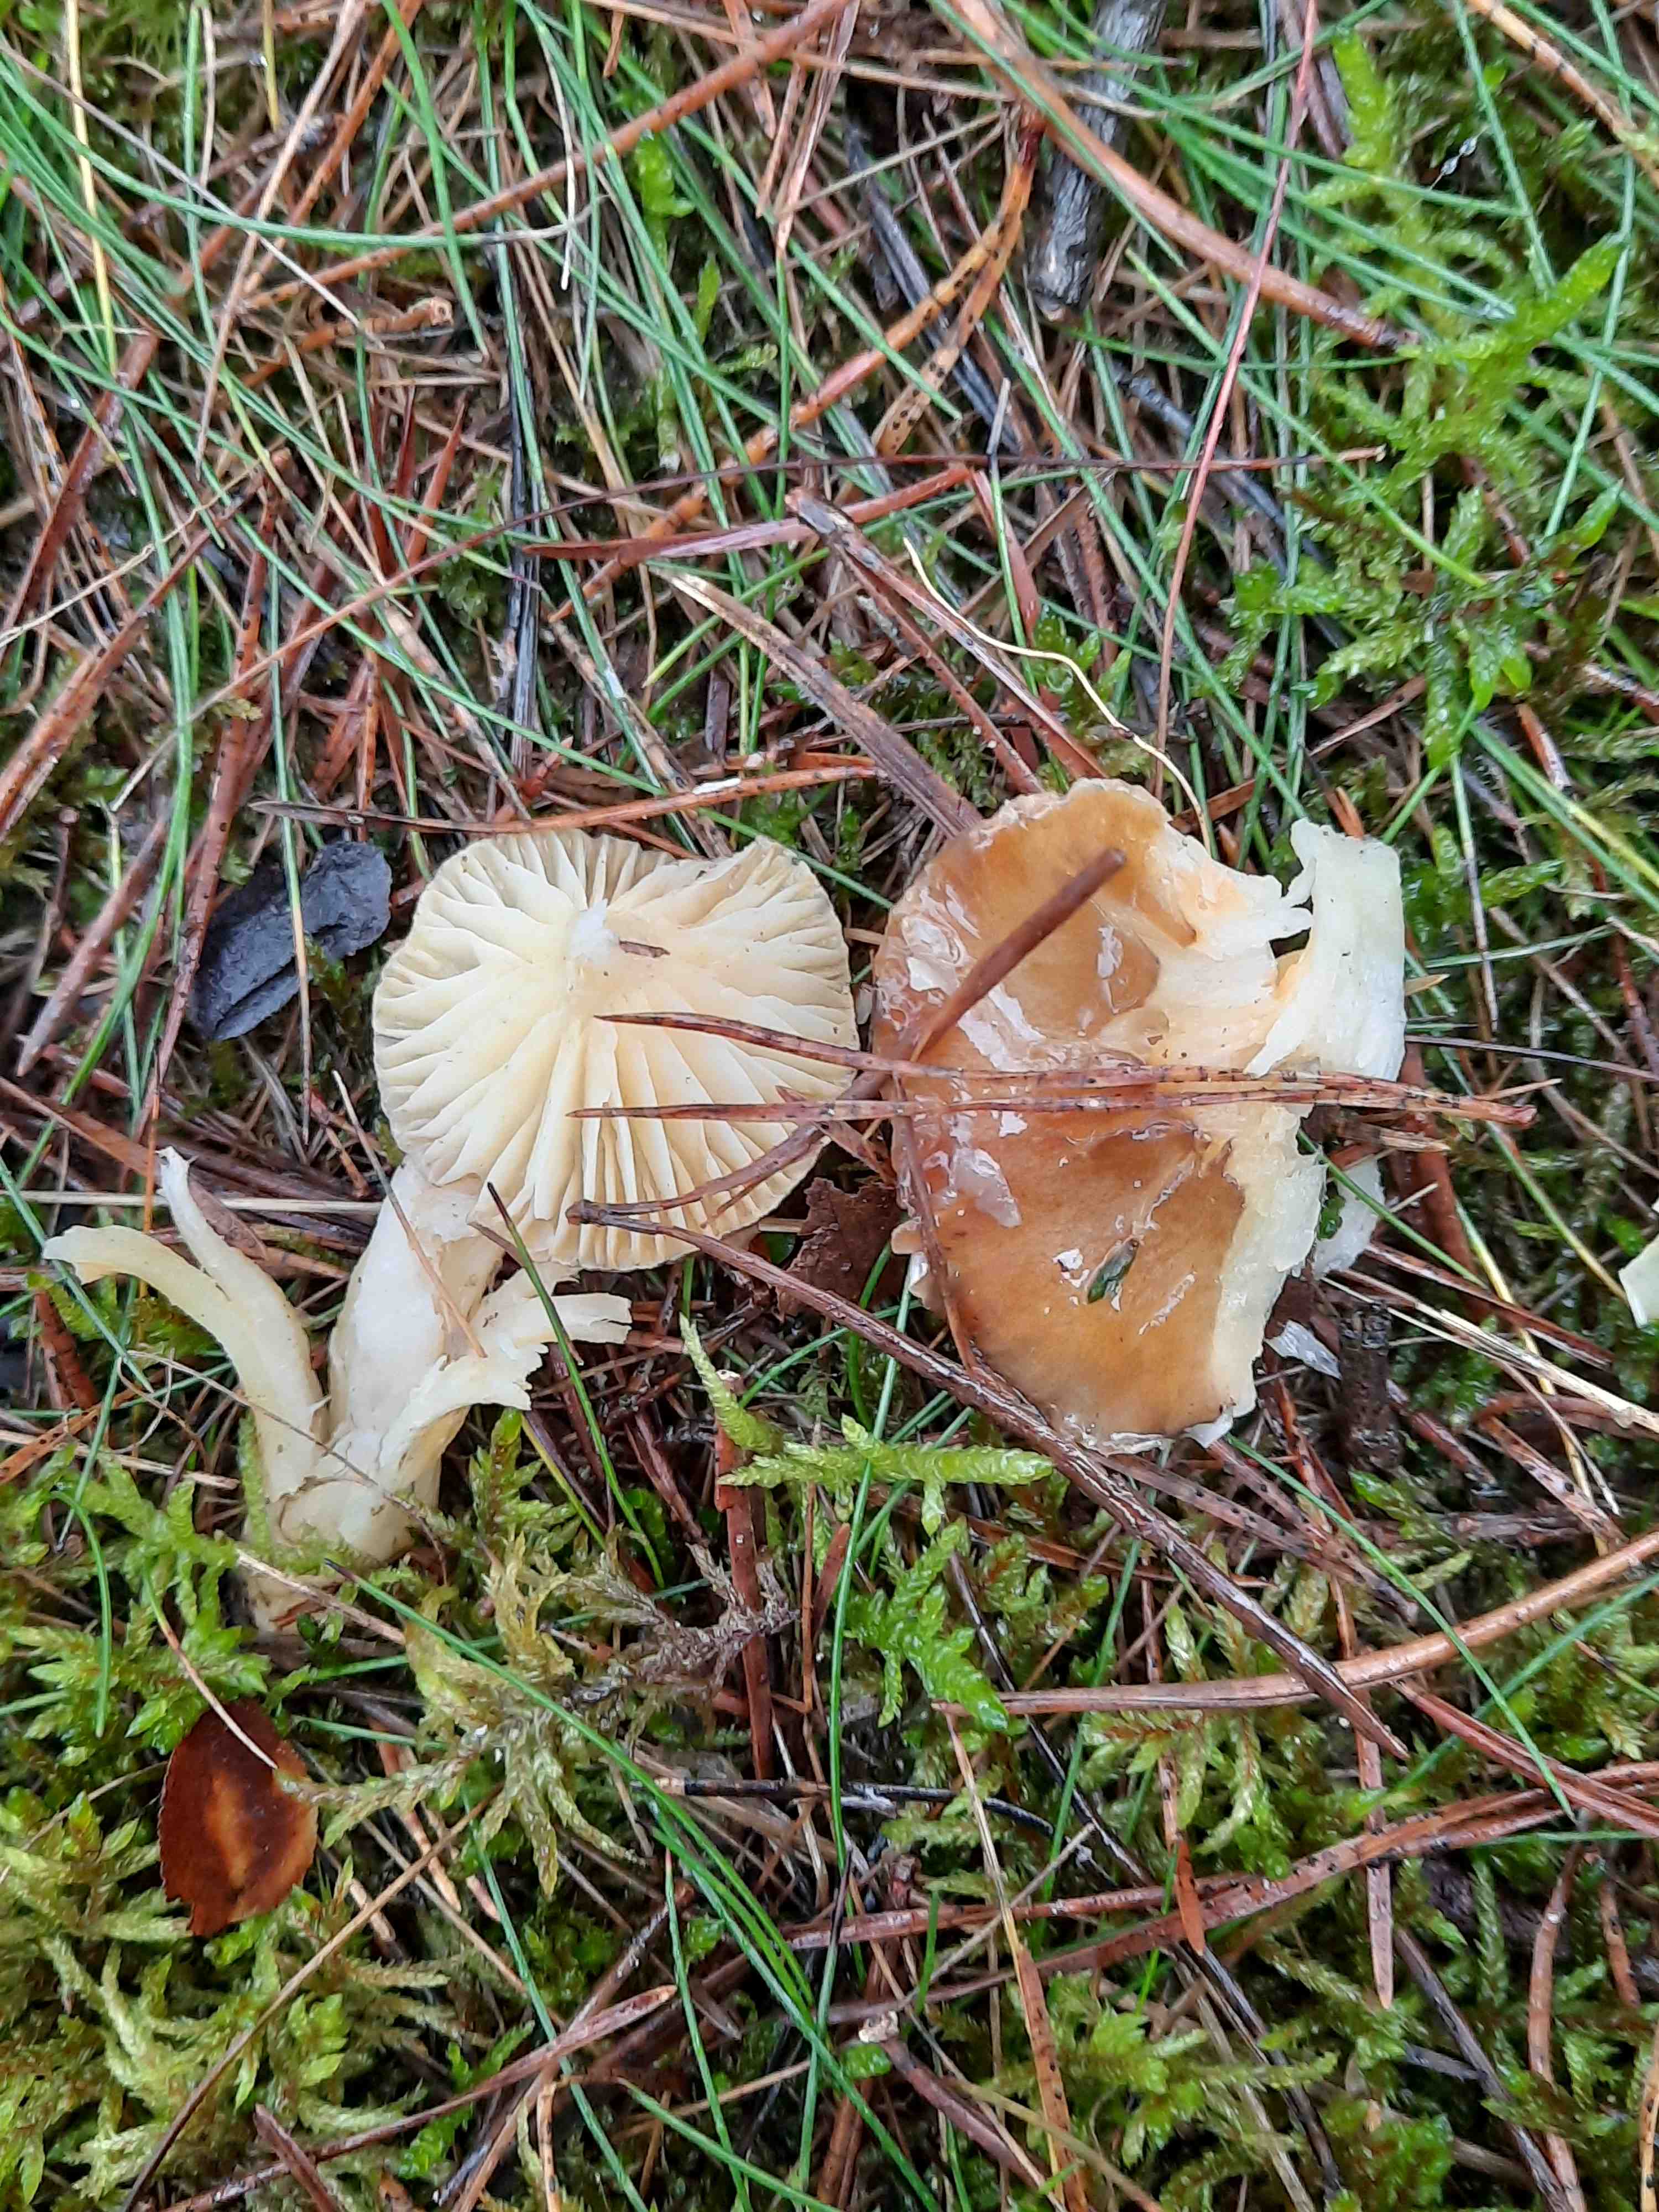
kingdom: Fungi
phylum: Basidiomycota
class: Agaricomycetes
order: Agaricales
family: Hygrophoraceae
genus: Hygrophorus
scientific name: Hygrophorus hypothejus
